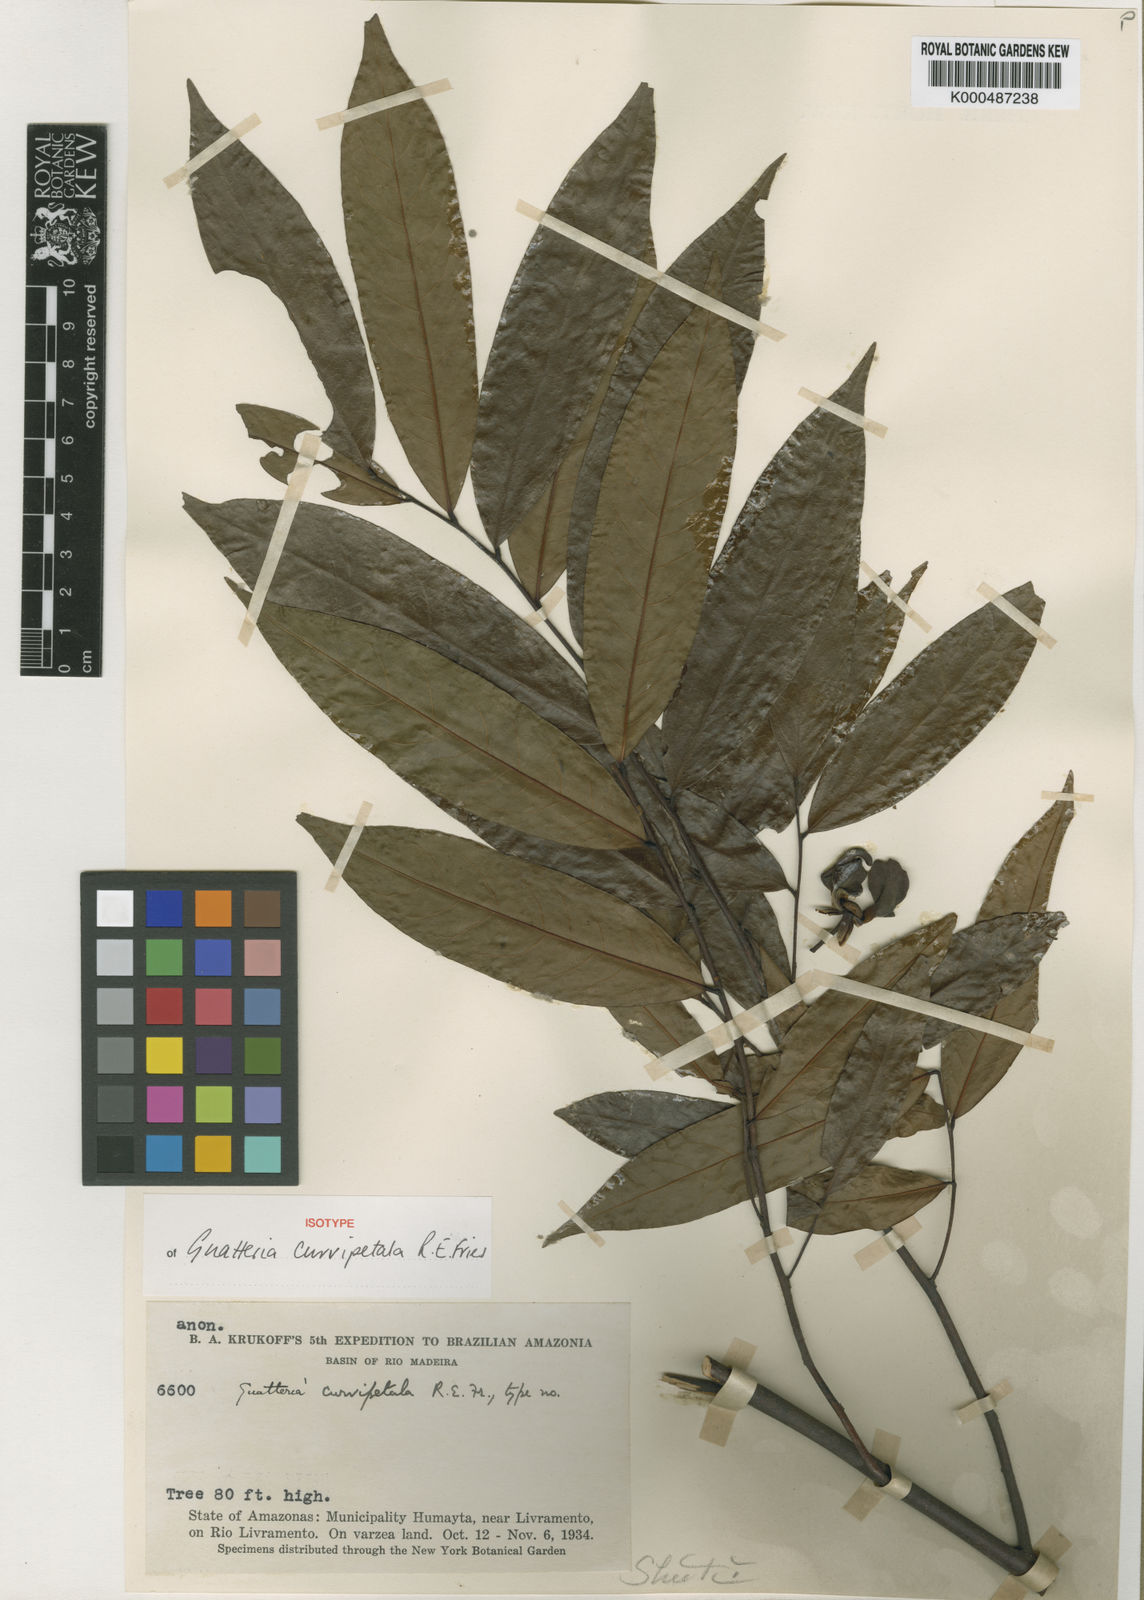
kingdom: Plantae
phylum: Tracheophyta
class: Magnoliopsida
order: Magnoliales
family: Annonaceae
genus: Guatteria
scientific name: Guatteria curvipetala
